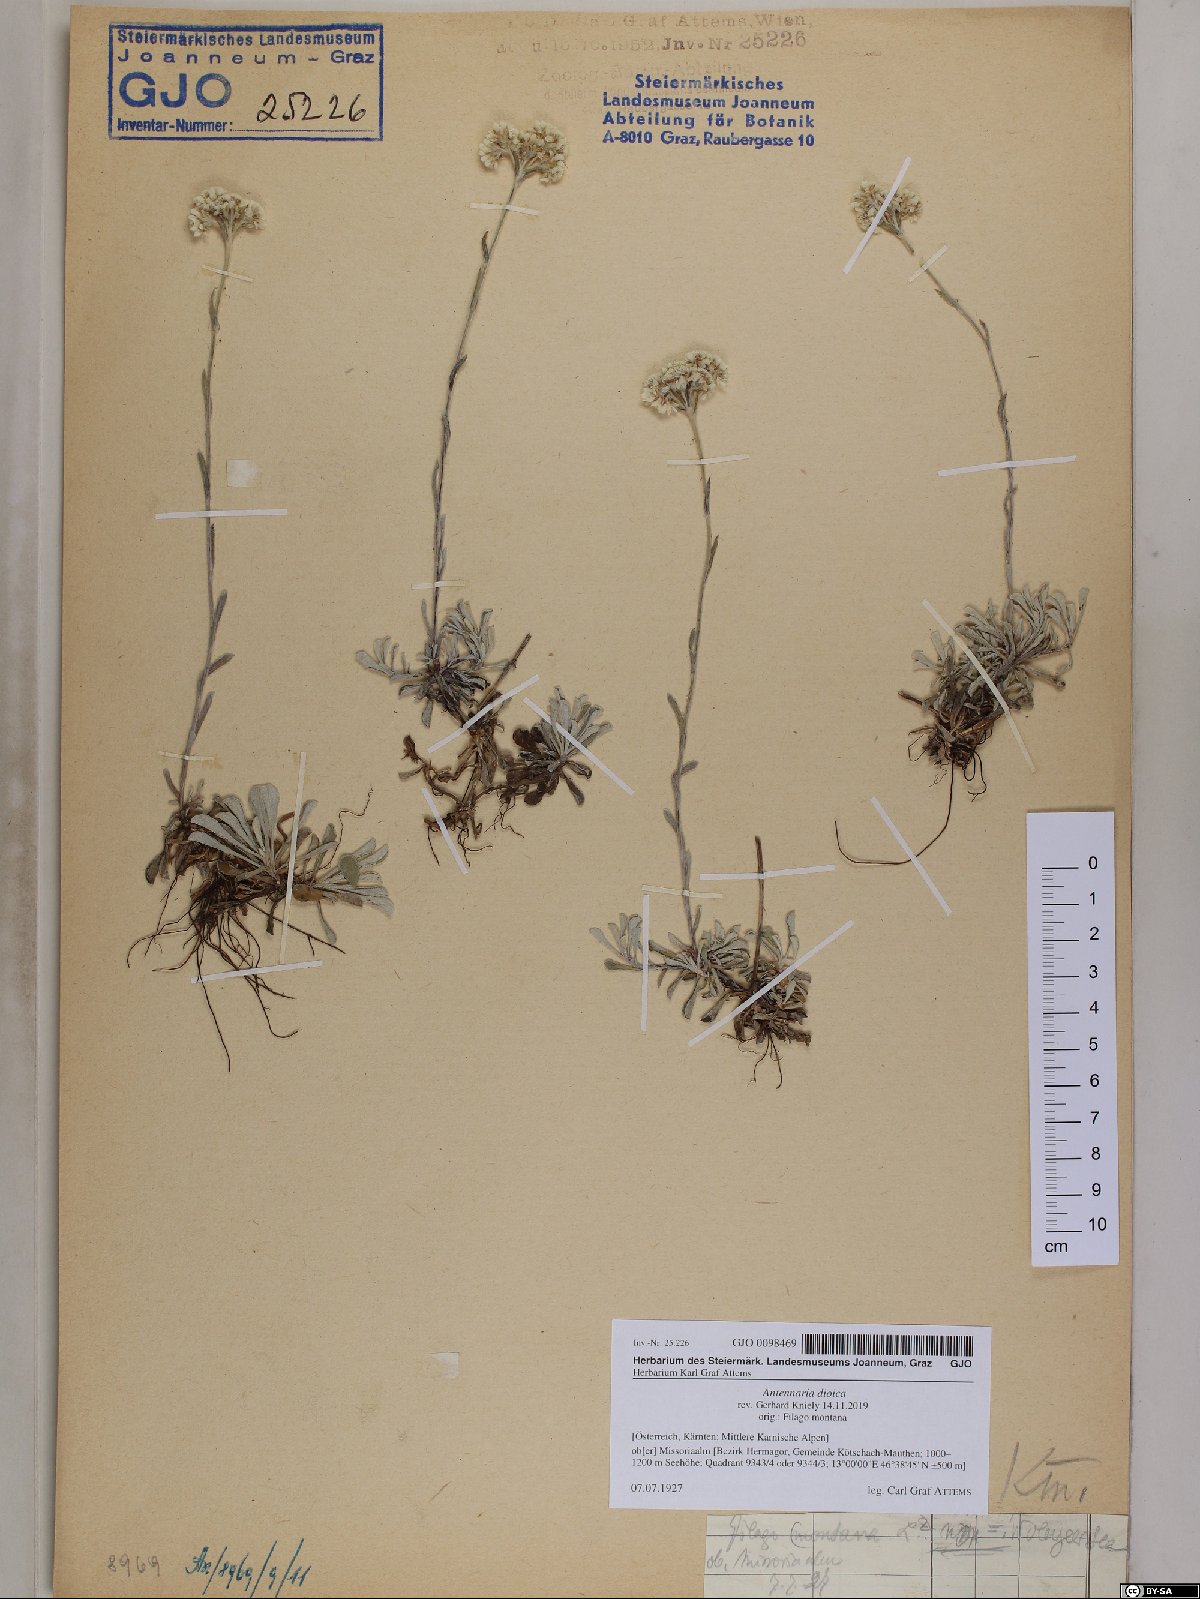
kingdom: Plantae
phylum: Tracheophyta
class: Magnoliopsida
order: Asterales
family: Asteraceae
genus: Antennaria
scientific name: Antennaria dioica
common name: Mountain everlasting
